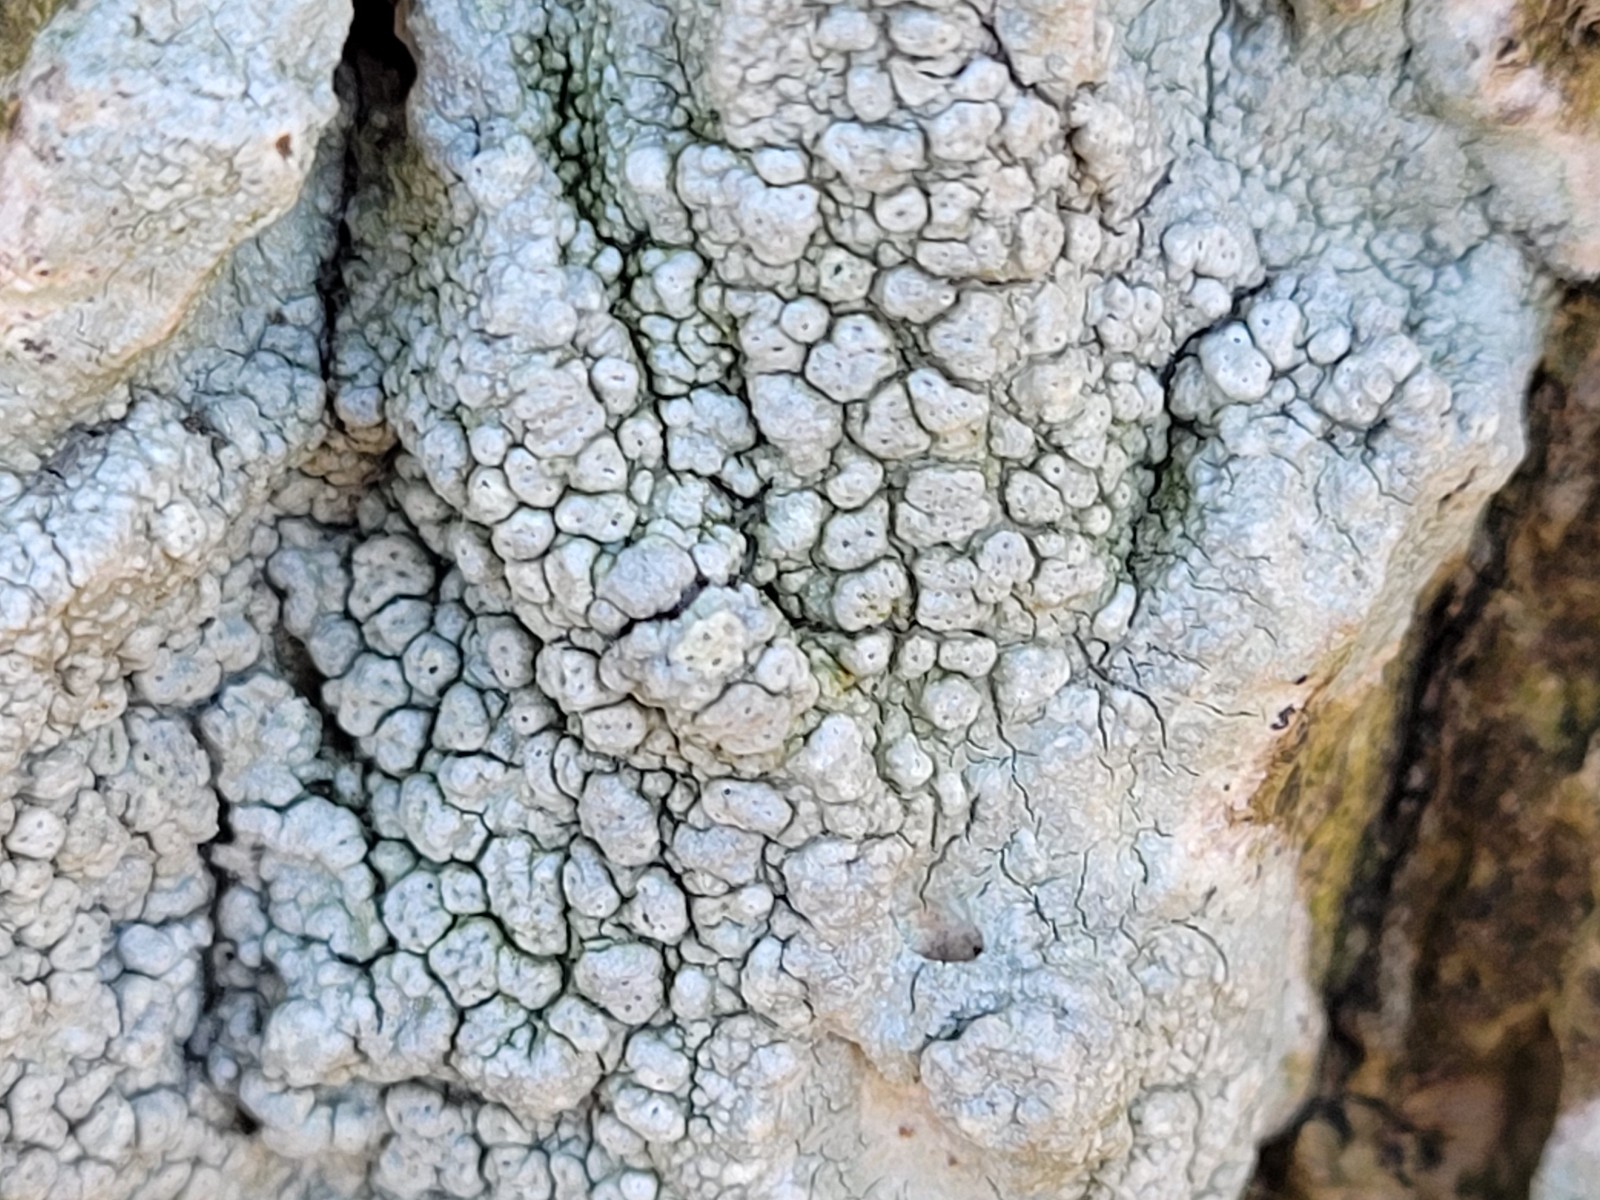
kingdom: Fungi
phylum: Ascomycota
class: Lecanoromycetes
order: Pertusariales
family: Pertusariaceae
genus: Pertusaria
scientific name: Pertusaria pertusa
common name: almindelig prikvortelav
